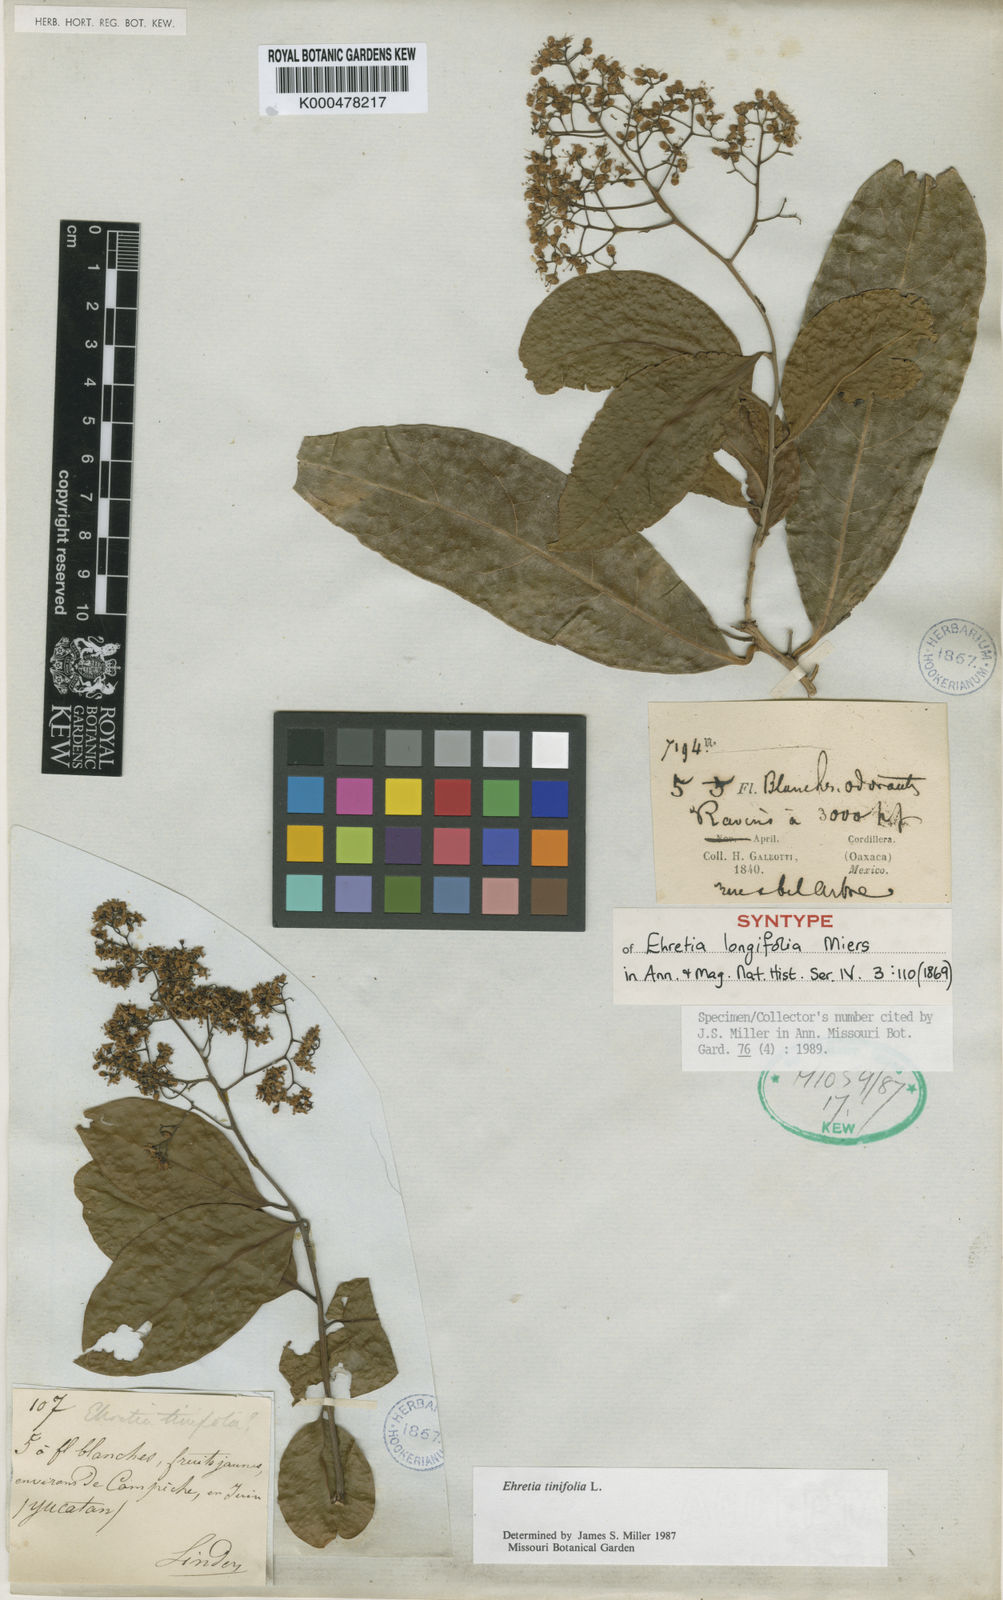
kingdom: Plantae
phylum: Tracheophyta
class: Magnoliopsida
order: Boraginales
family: Ehretiaceae
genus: Ehretia
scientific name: Ehretia tinifolia
